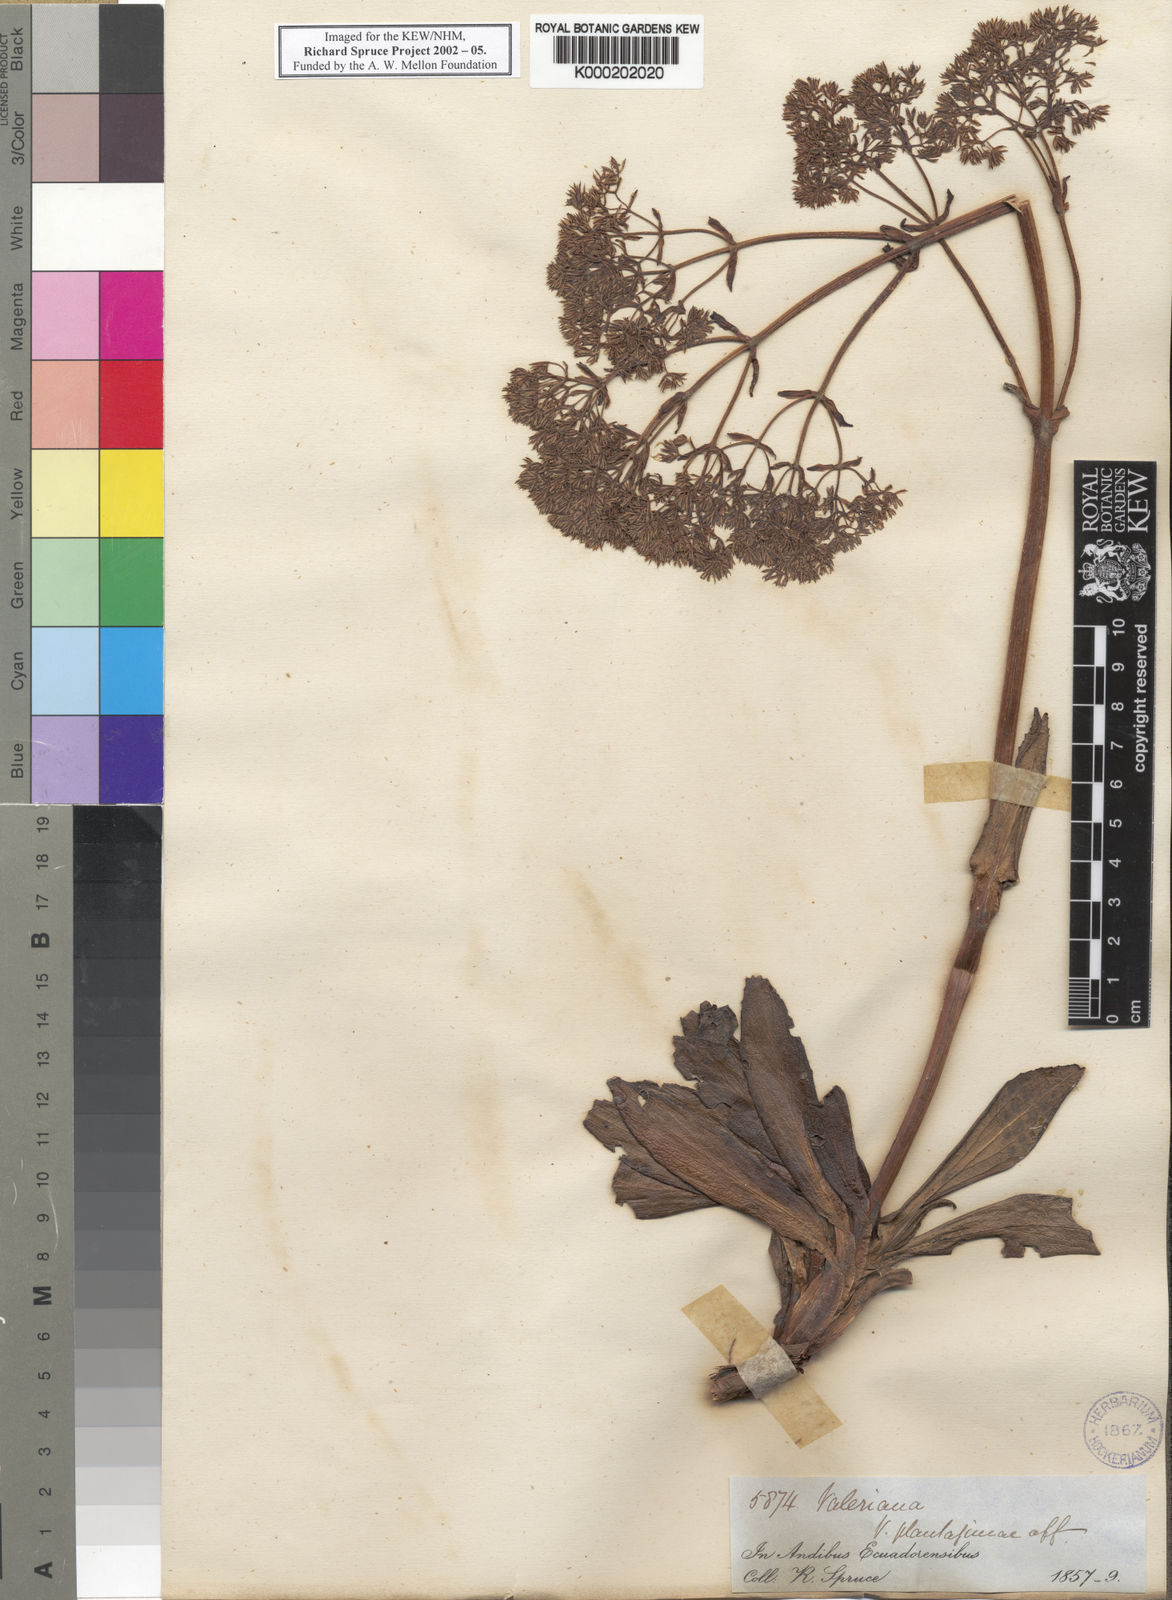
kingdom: Plantae
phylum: Tracheophyta
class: Magnoliopsida
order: Dipsacales
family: Caprifoliaceae
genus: Valeriana
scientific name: Valeriana pilosa
